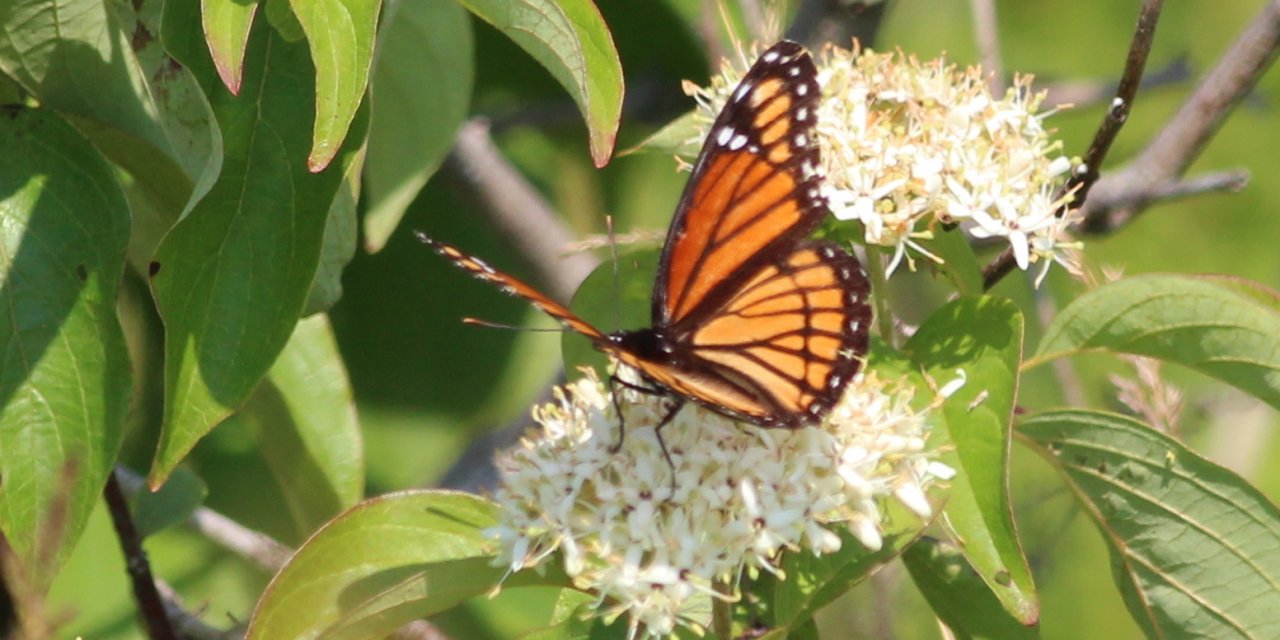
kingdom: Animalia
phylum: Arthropoda
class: Insecta
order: Lepidoptera
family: Nymphalidae
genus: Limenitis
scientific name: Limenitis archippus
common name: Viceroy
